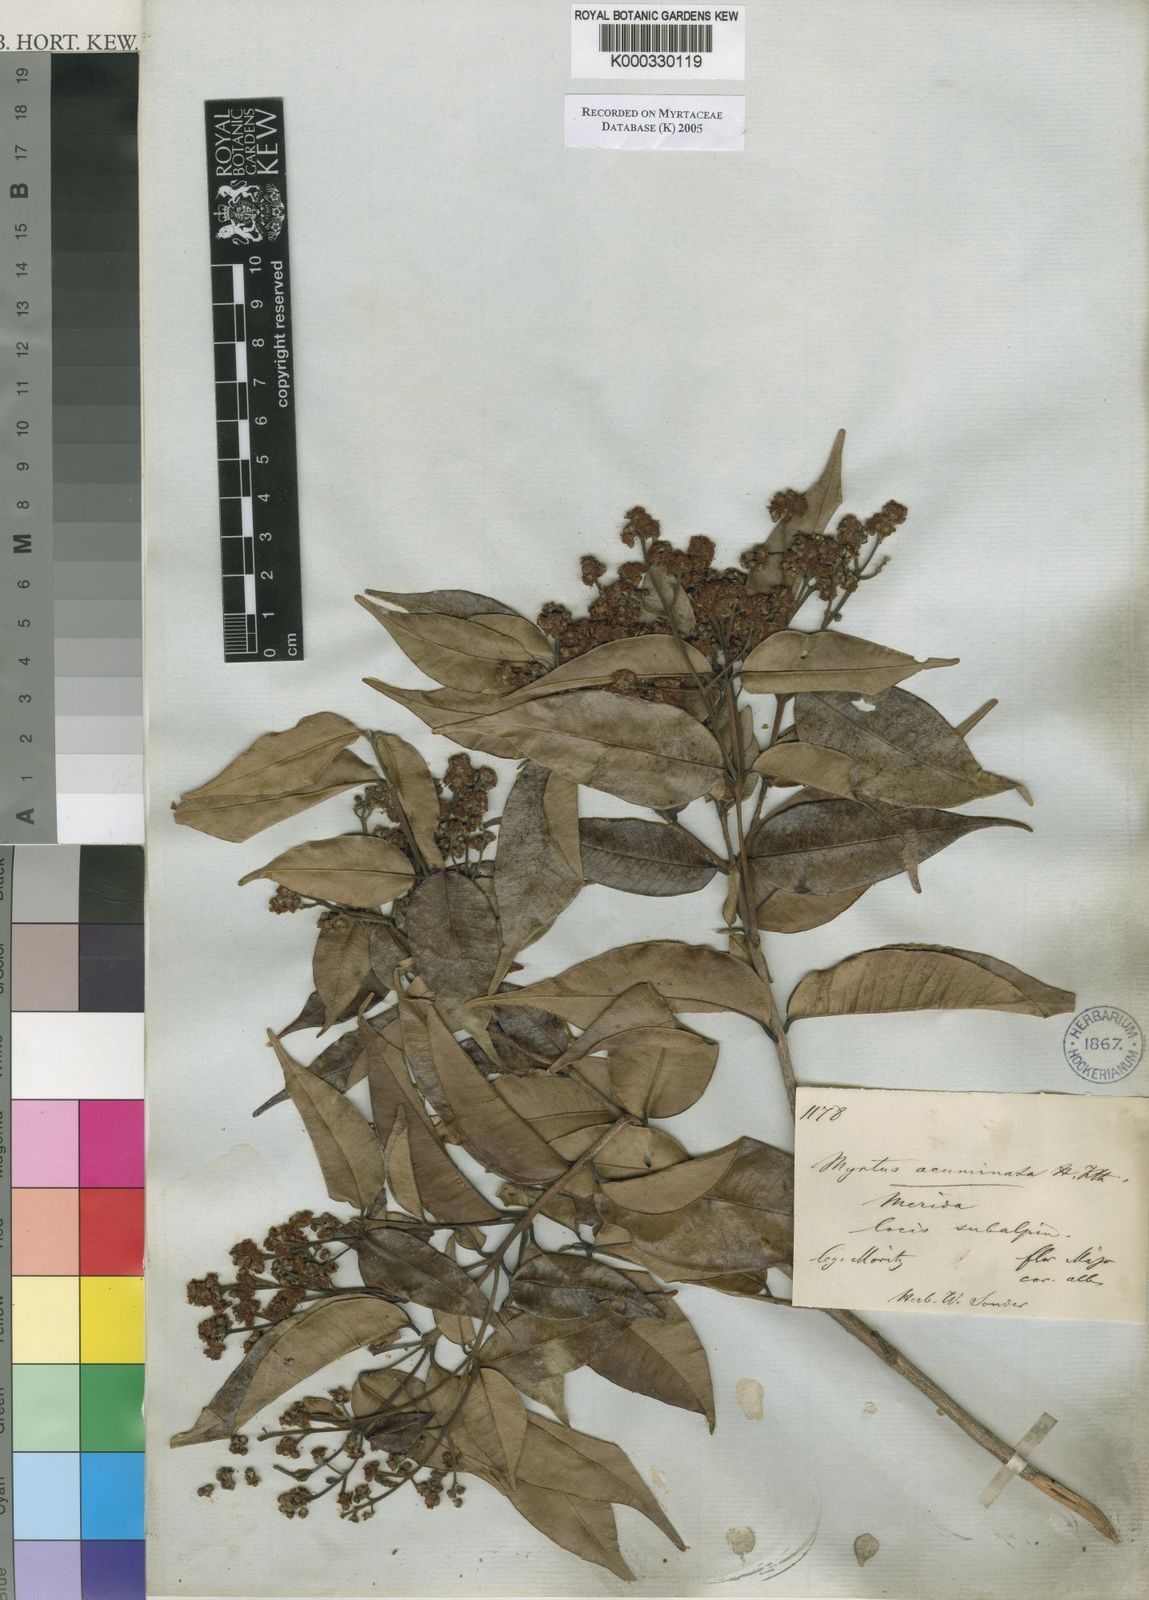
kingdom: Plantae
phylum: Tracheophyta
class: Magnoliopsida
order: Myrtales
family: Myrtaceae
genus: Myrcia
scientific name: Myrcia splendens
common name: Surinam cherry
